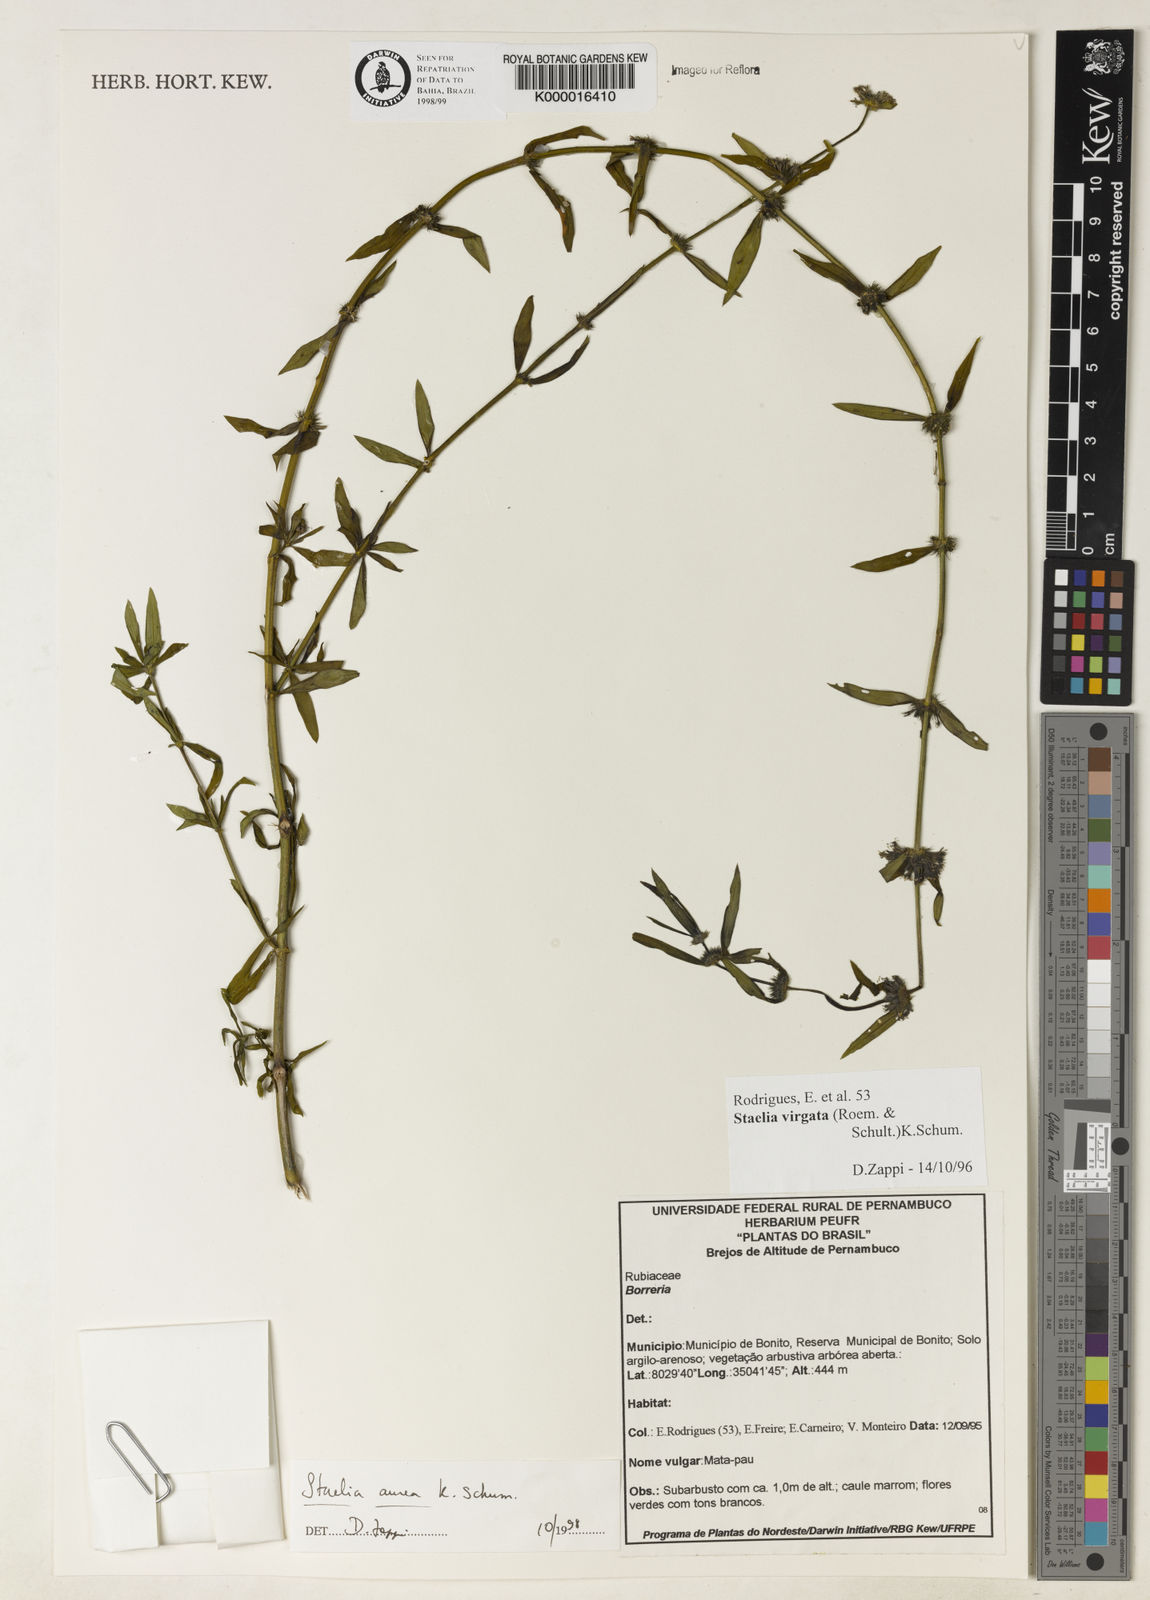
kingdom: Plantae
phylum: Tracheophyta
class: Magnoliopsida
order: Gentianales
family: Rubiaceae
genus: Staelia
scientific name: Staelia aurea
